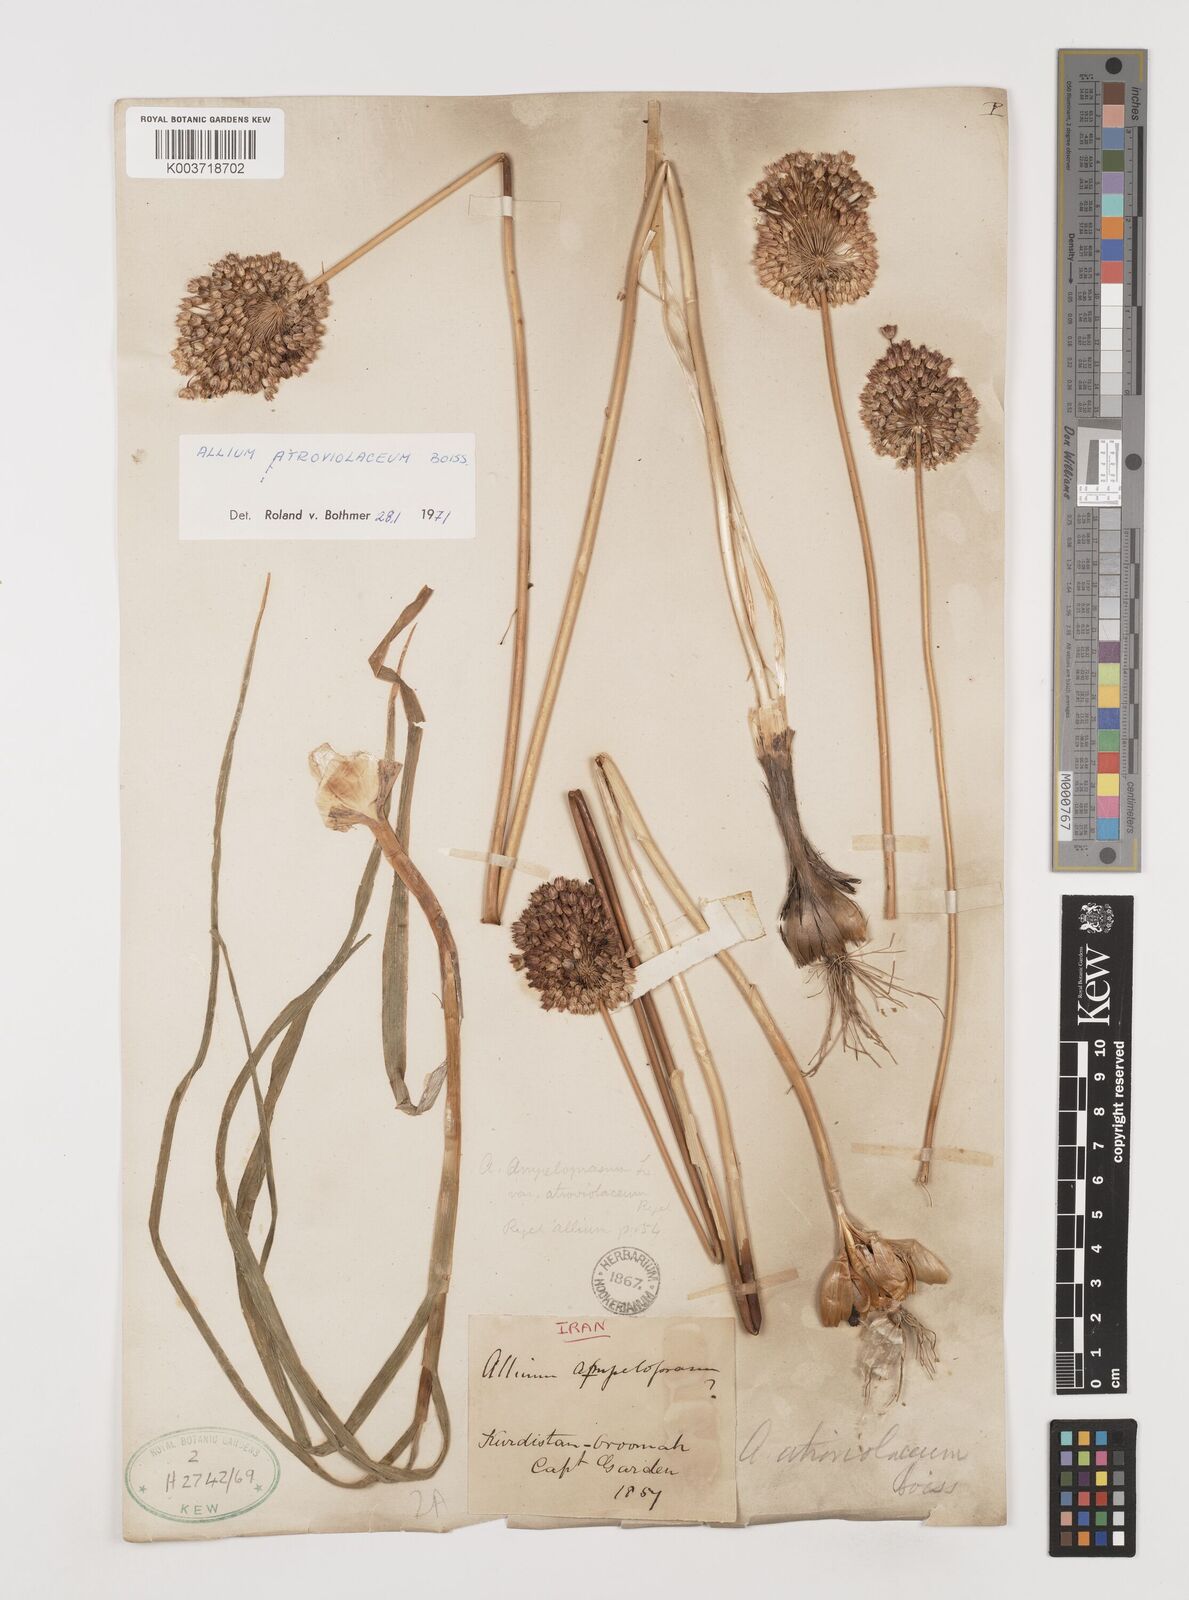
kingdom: Plantae
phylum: Tracheophyta
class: Liliopsida
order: Asparagales
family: Amaryllidaceae
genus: Allium
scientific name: Allium atroviolaceum
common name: Broadleaf wild leek
